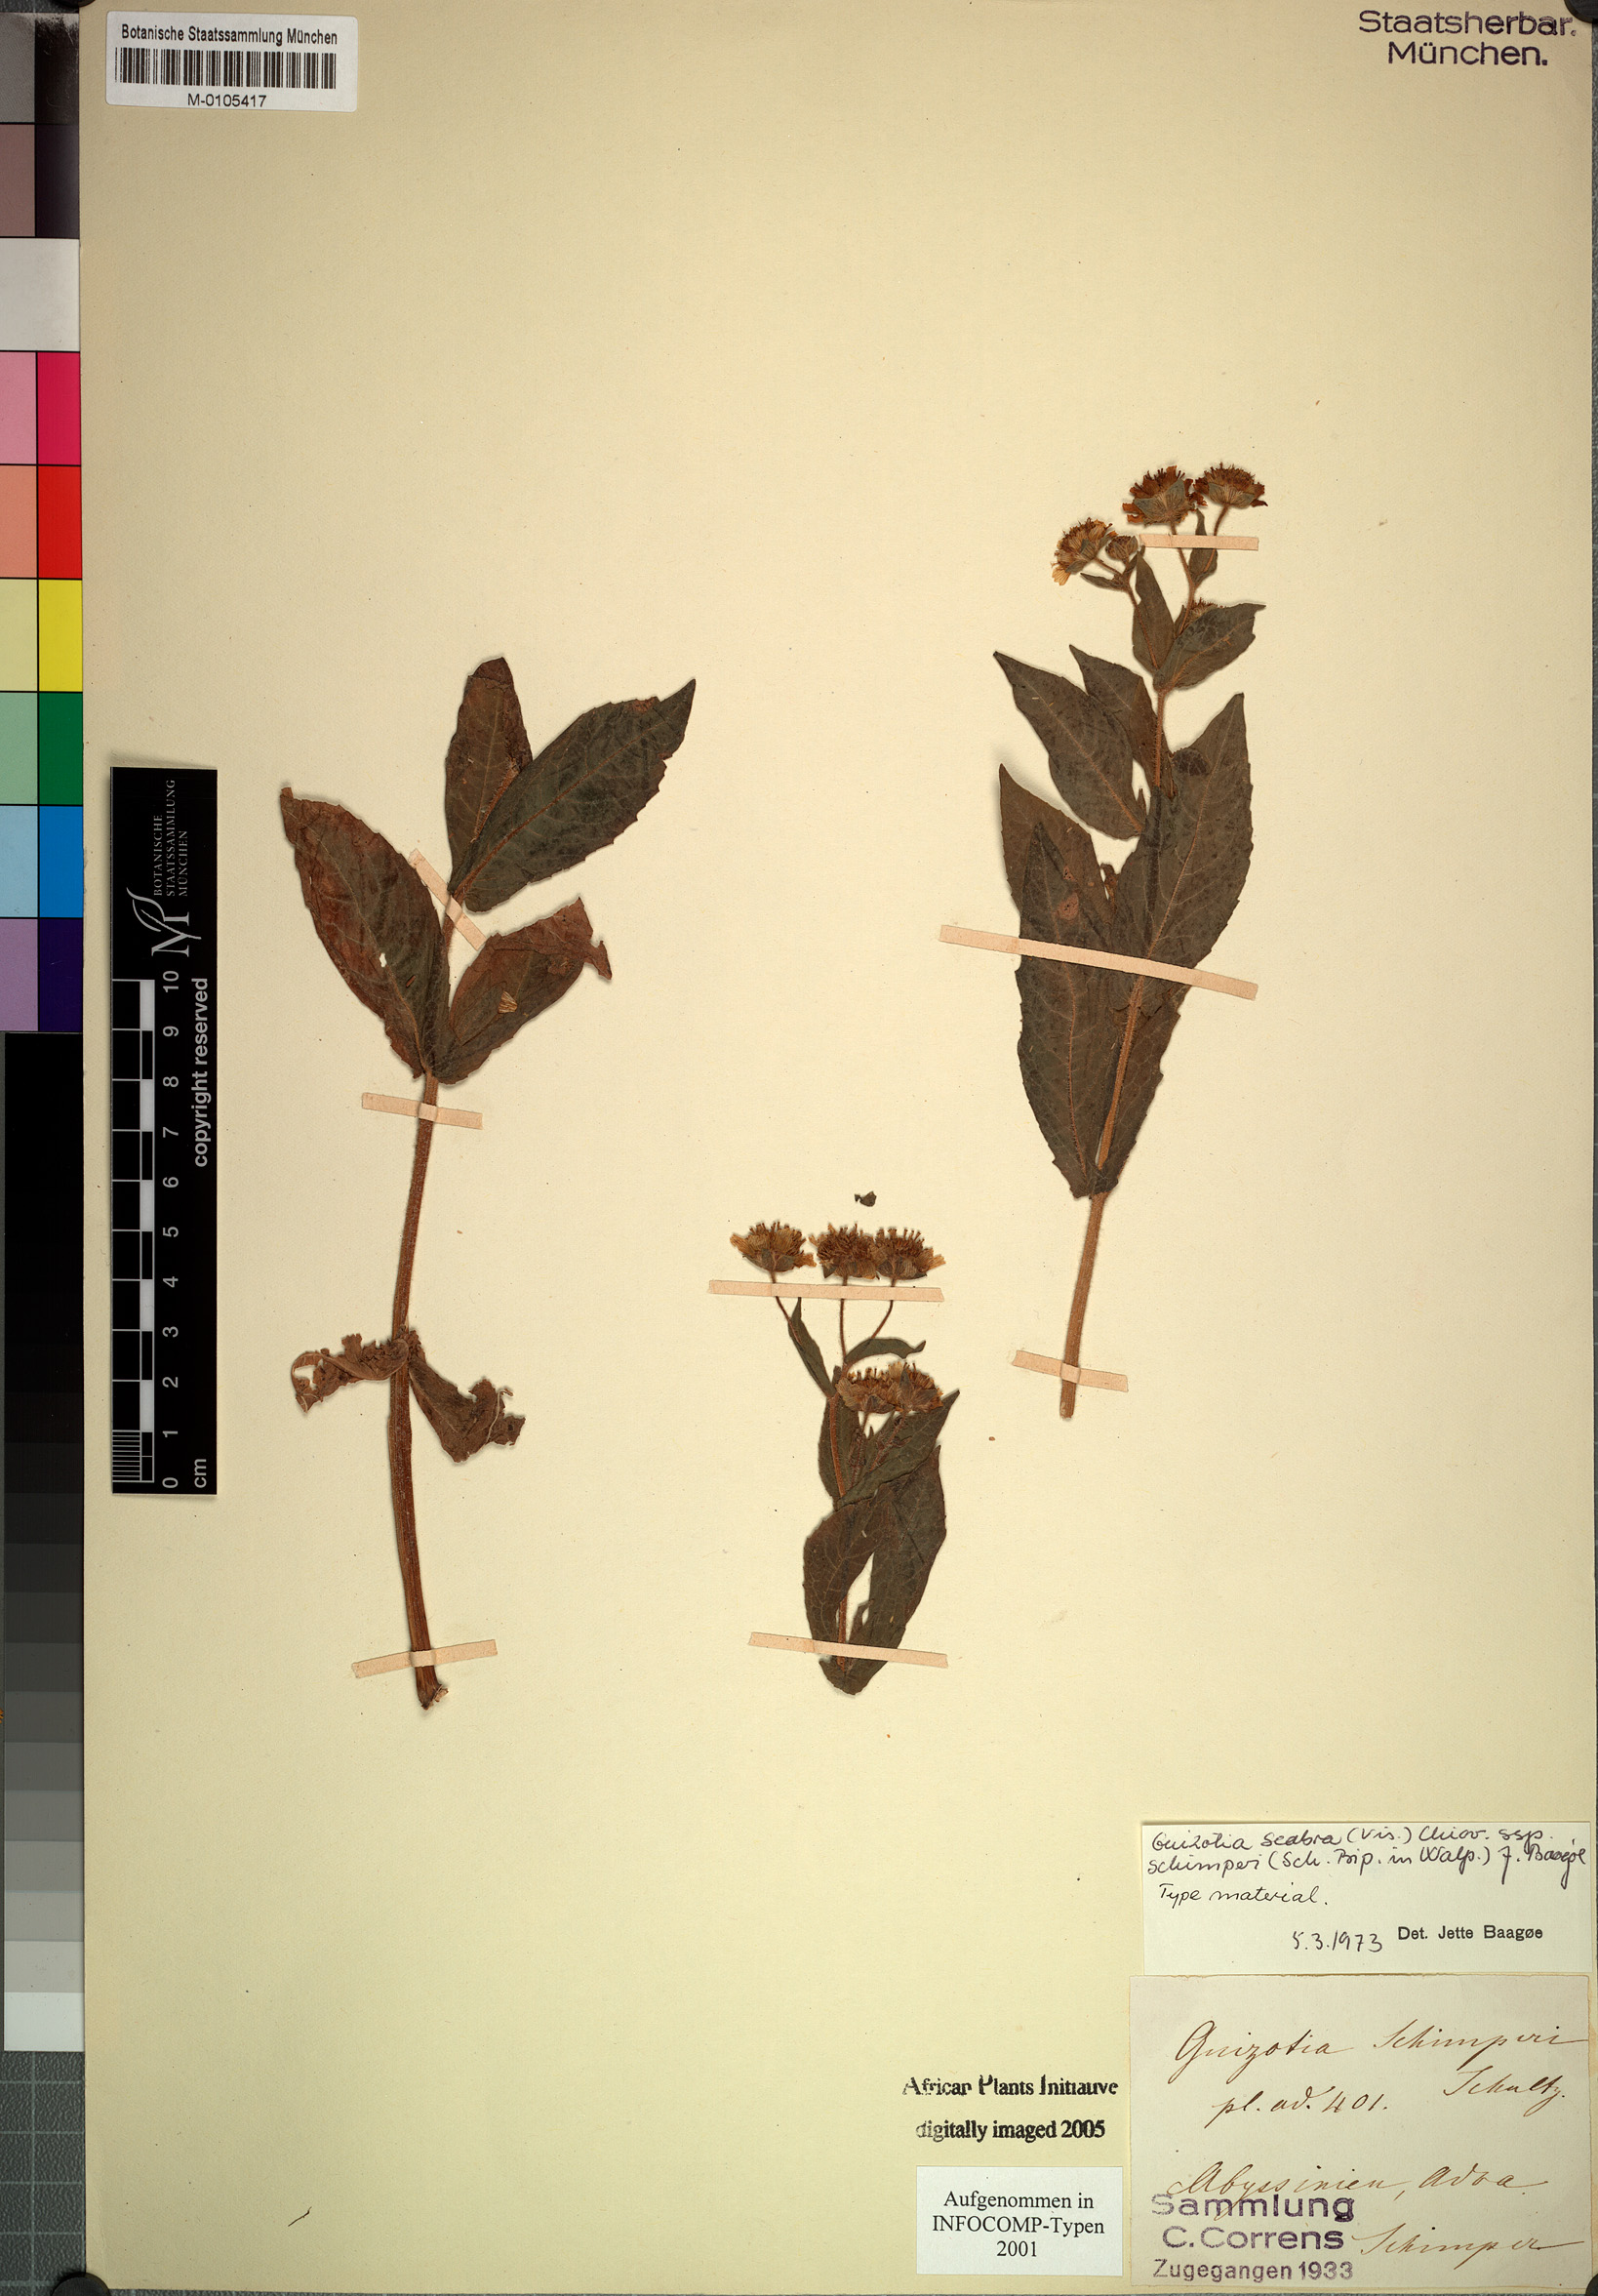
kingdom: Plantae
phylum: Tracheophyta
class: Magnoliopsida
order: Asterales
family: Asteraceae
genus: Guizotia
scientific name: Guizotia scabra
